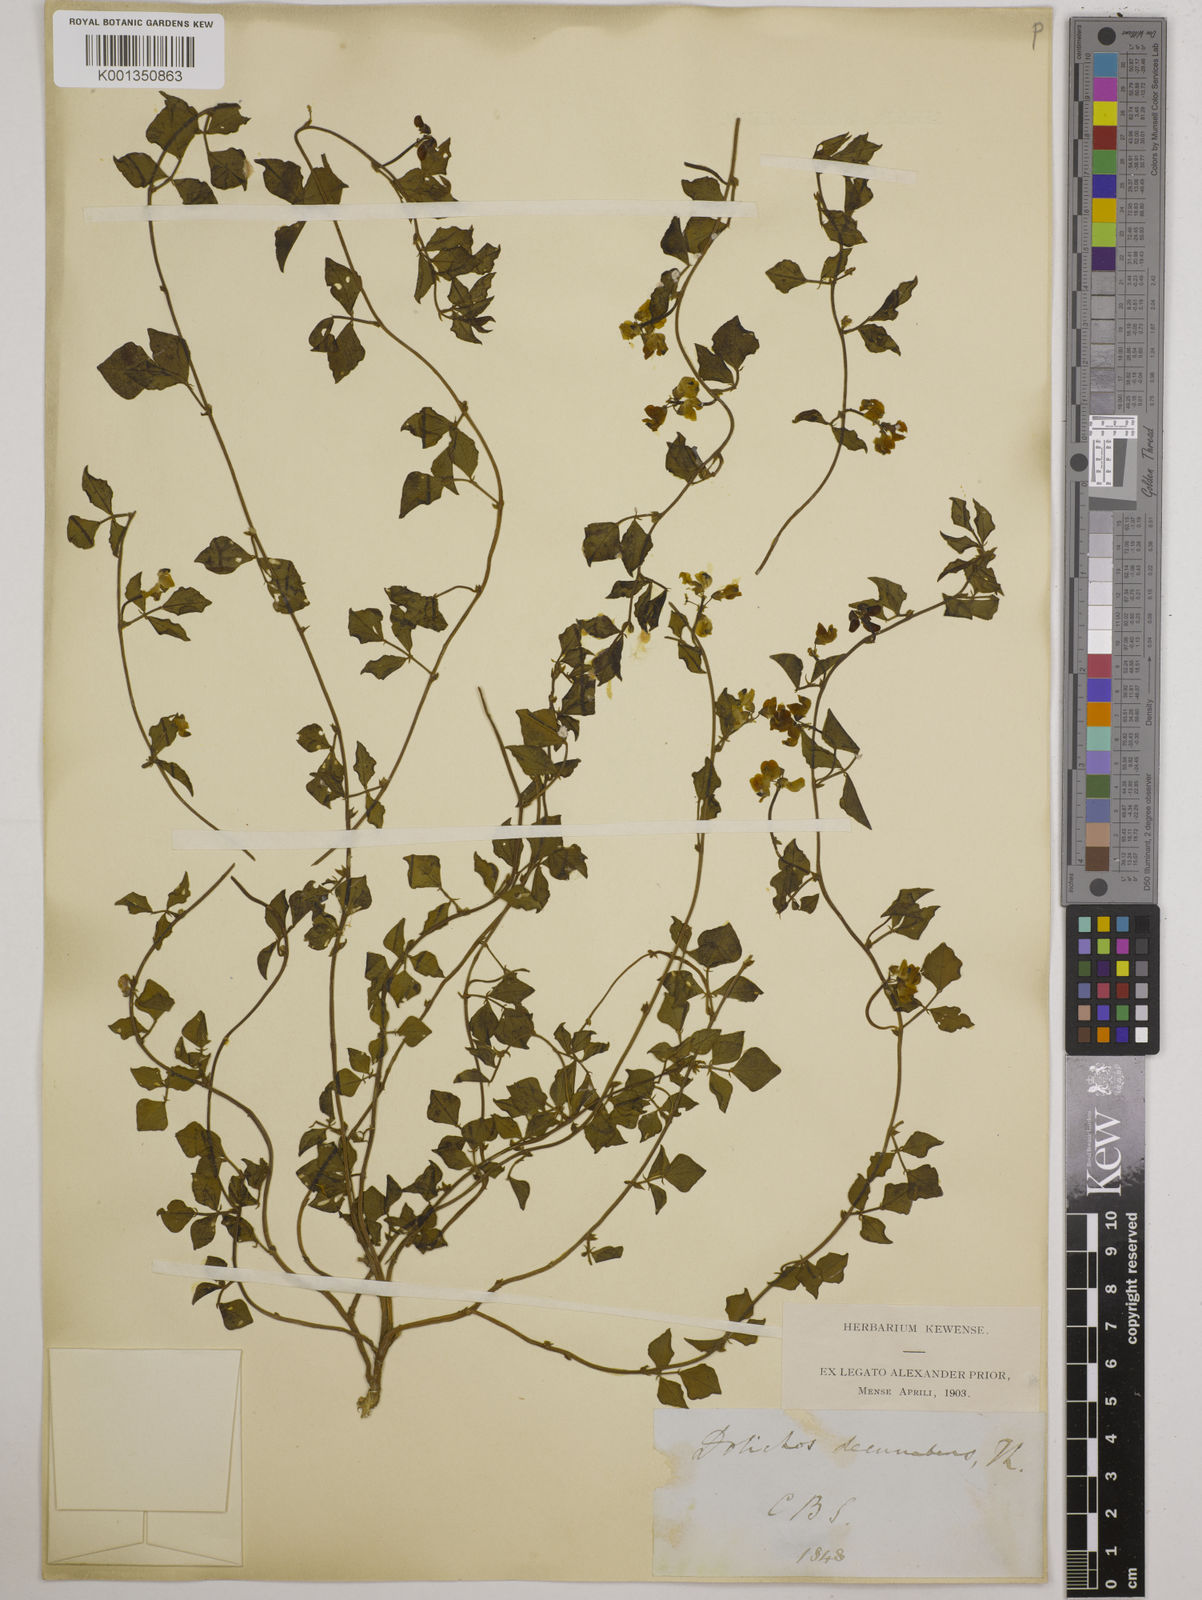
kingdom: Plantae
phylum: Tracheophyta
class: Magnoliopsida
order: Fabales
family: Fabaceae
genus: Dolichos
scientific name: Dolichos decumbens
